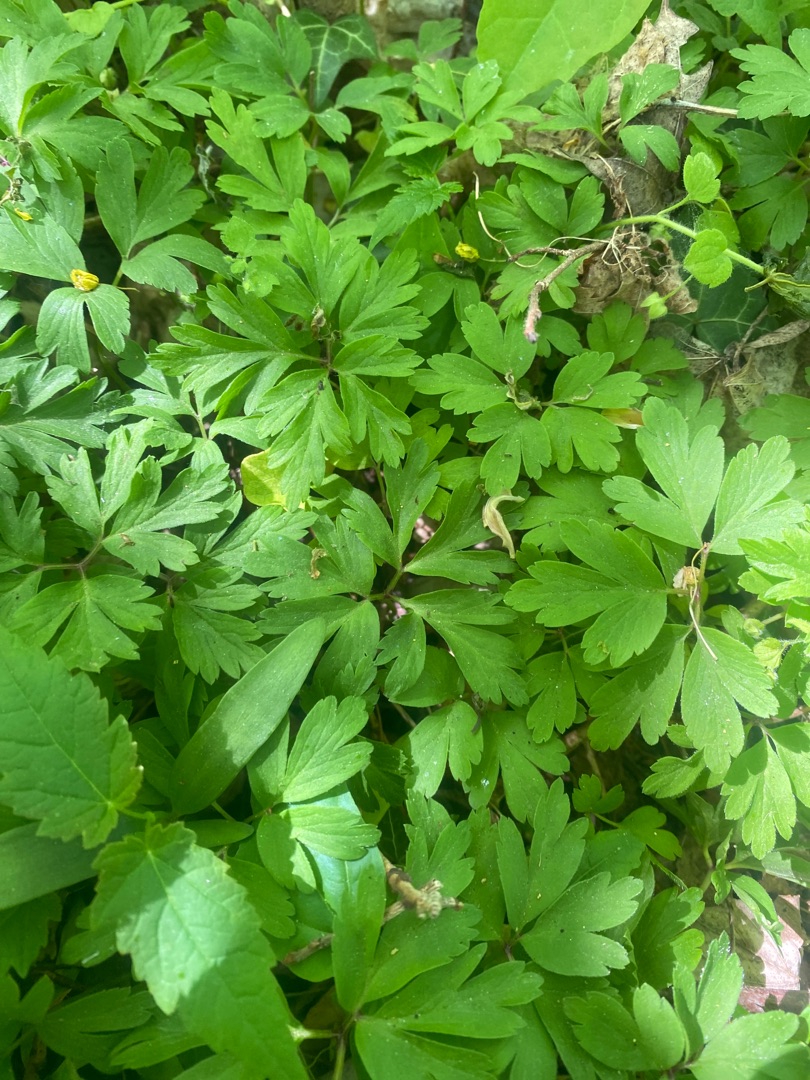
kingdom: Plantae
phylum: Tracheophyta
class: Magnoliopsida
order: Ranunculales
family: Ranunculaceae
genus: Anemone
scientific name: Anemone nemorosa
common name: Hvid anemone
